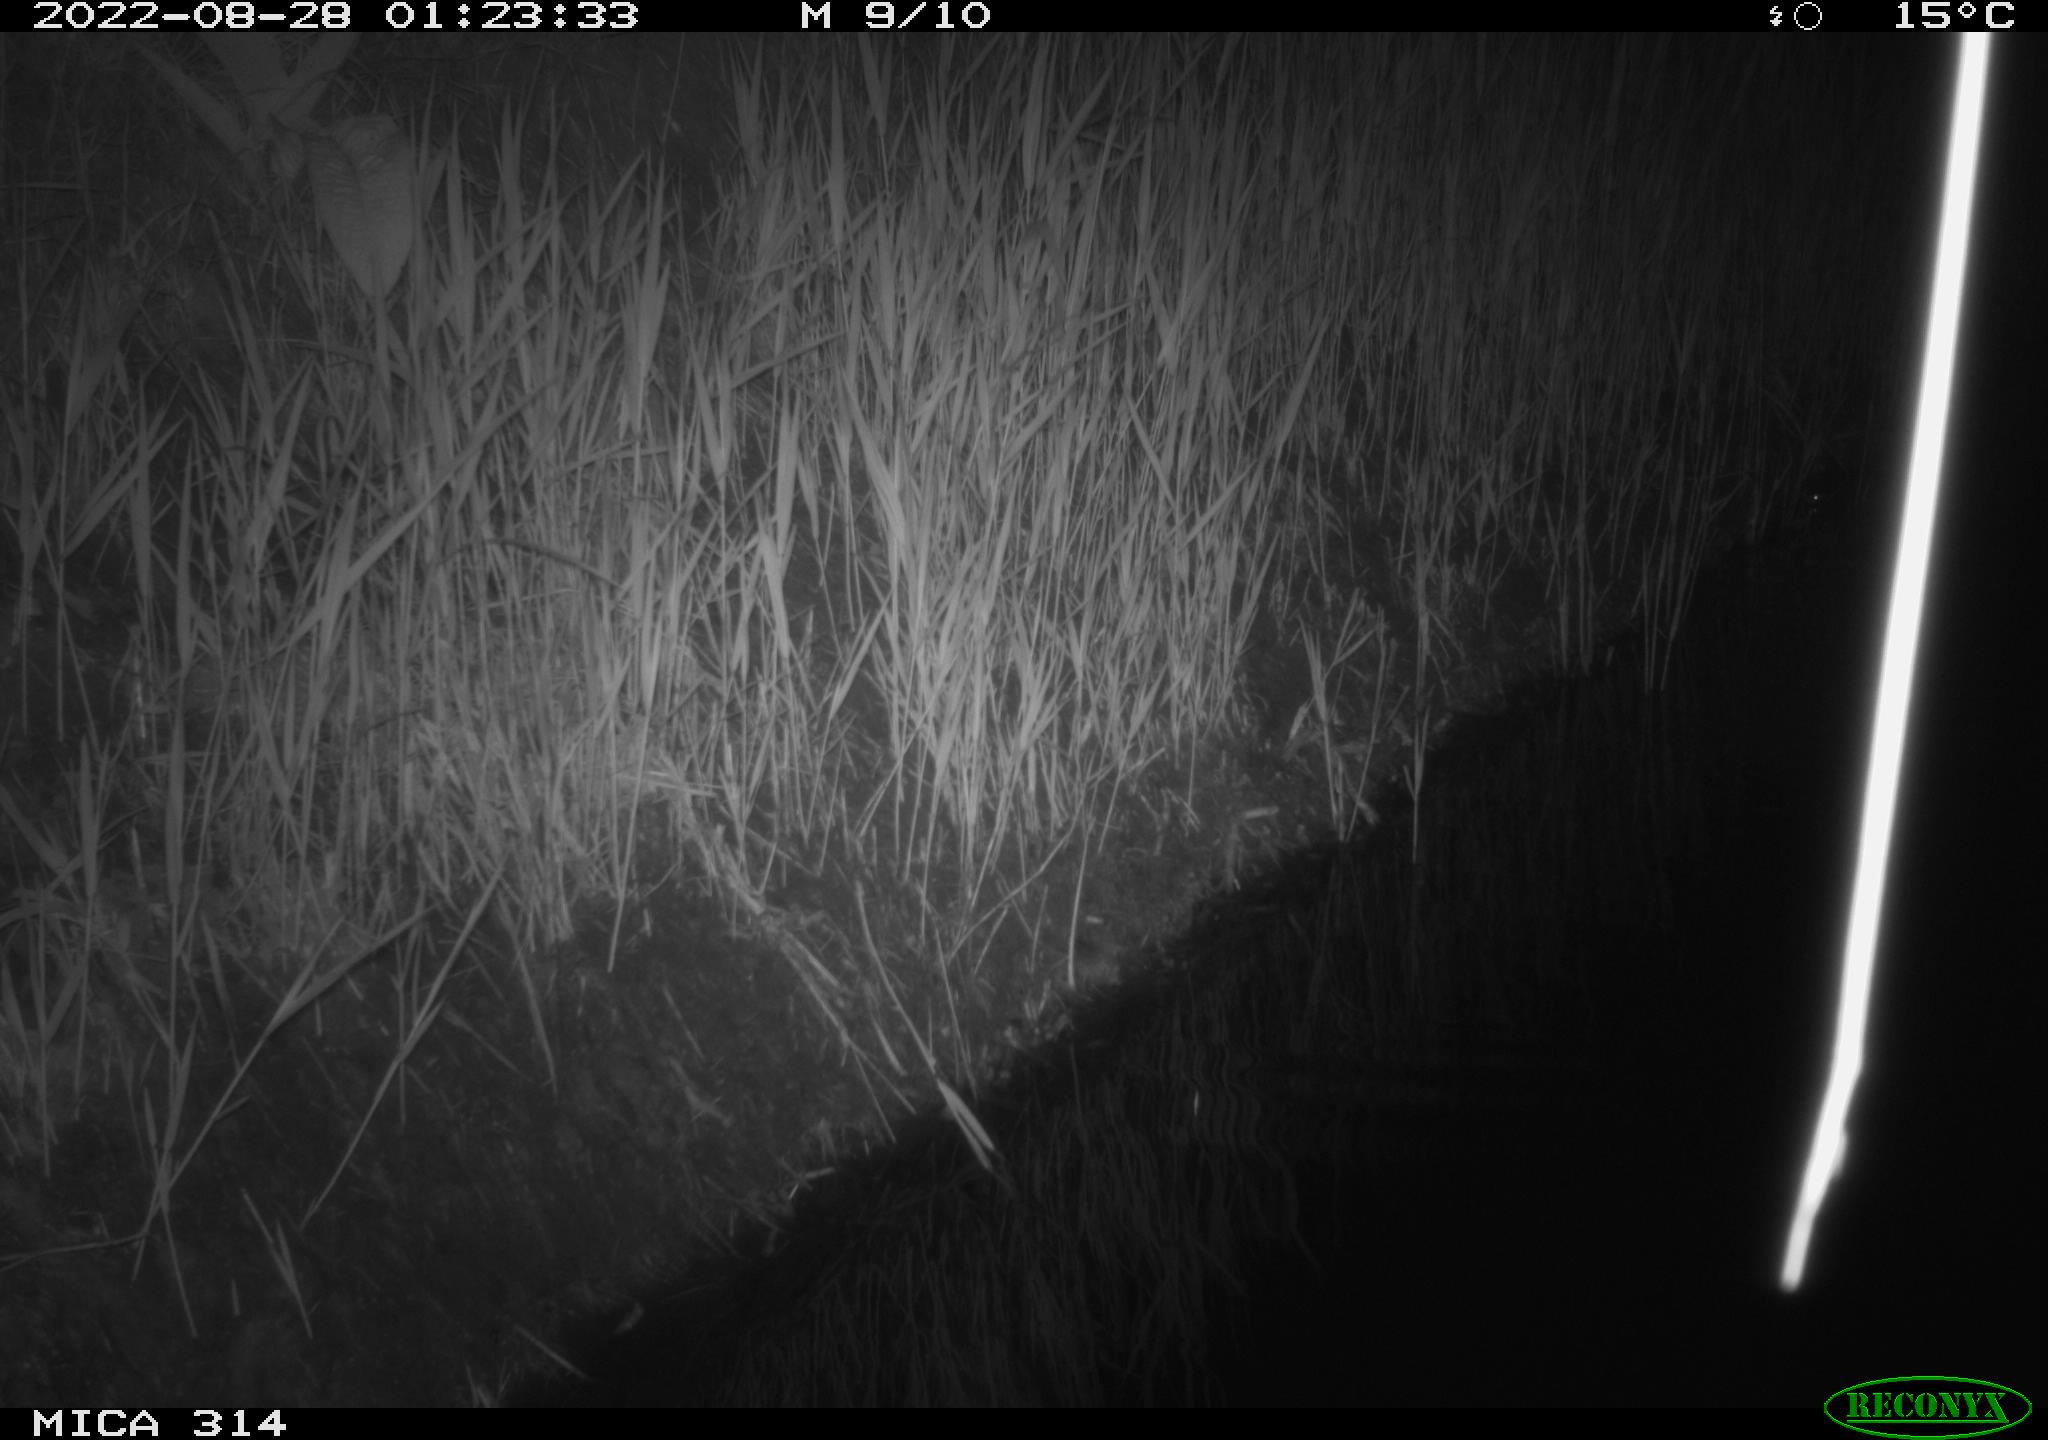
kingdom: Animalia
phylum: Chordata
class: Mammalia
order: Rodentia
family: Muridae
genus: Rattus
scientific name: Rattus norvegicus
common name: Brown rat
